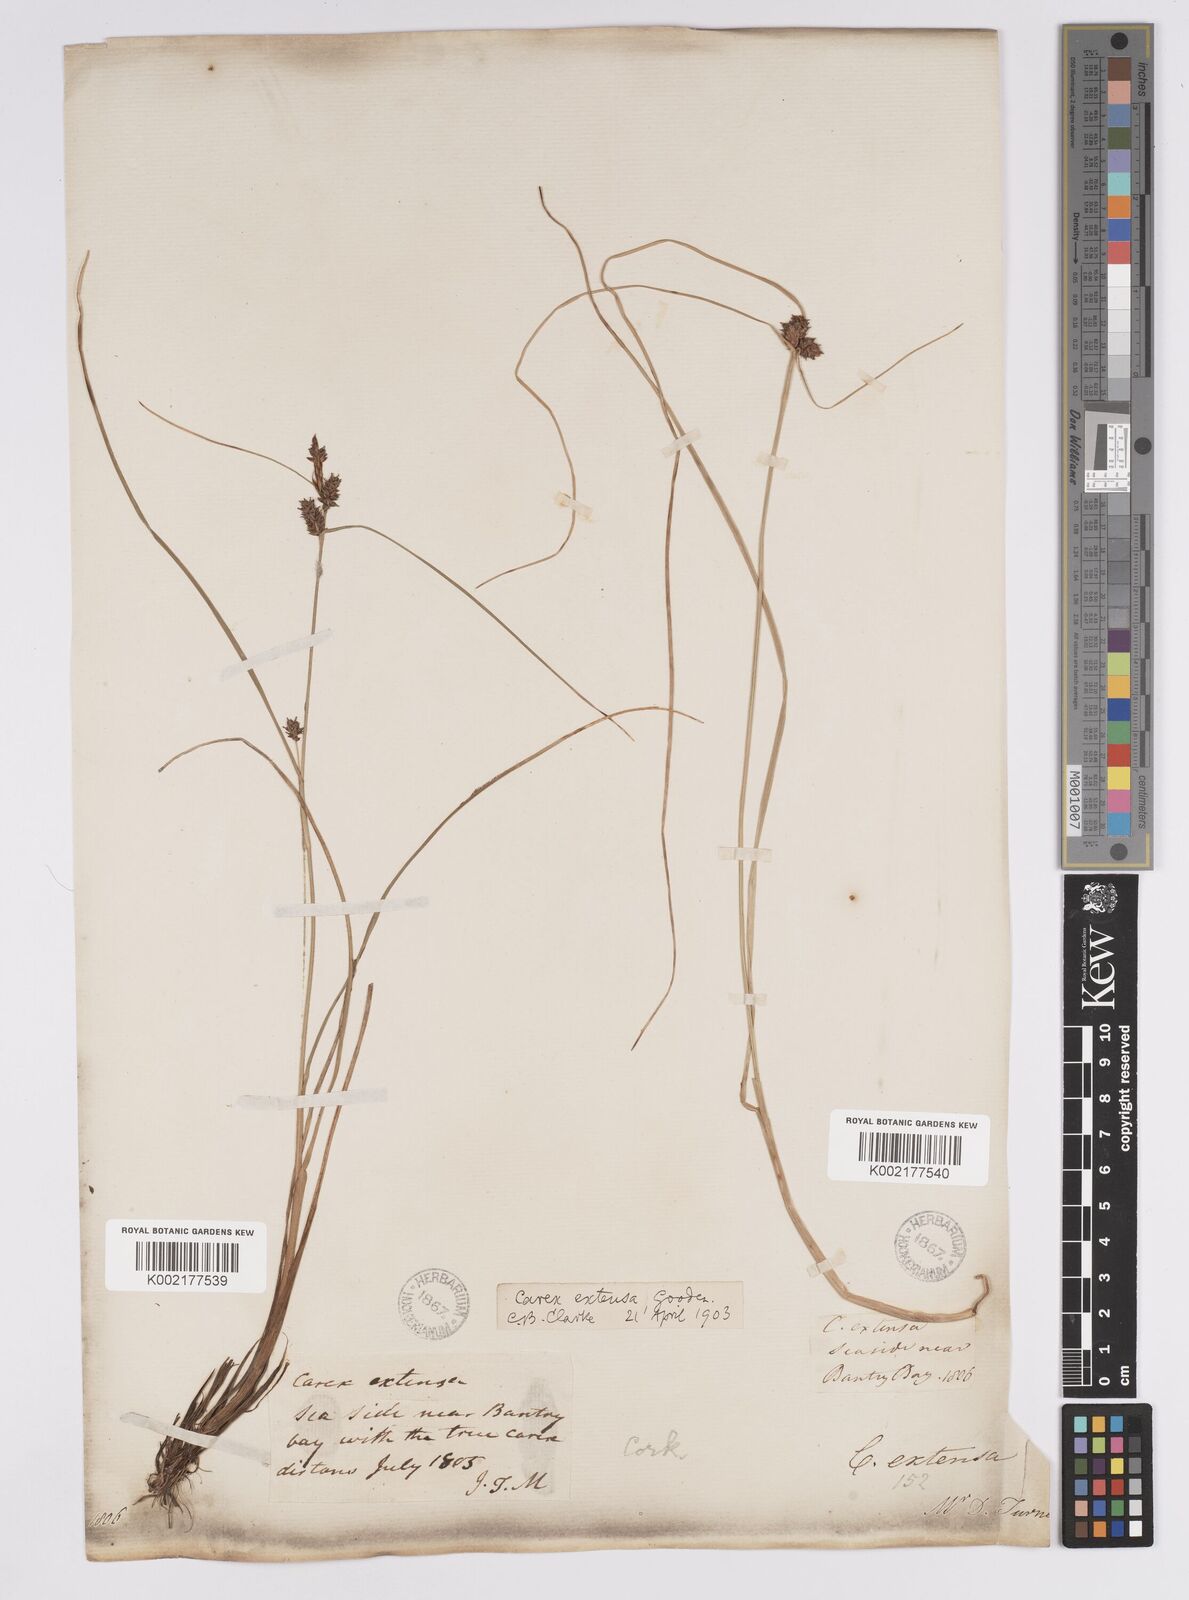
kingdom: Plantae
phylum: Tracheophyta
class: Liliopsida
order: Poales
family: Cyperaceae
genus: Carex
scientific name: Carex extensa
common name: Long-bracted sedge
